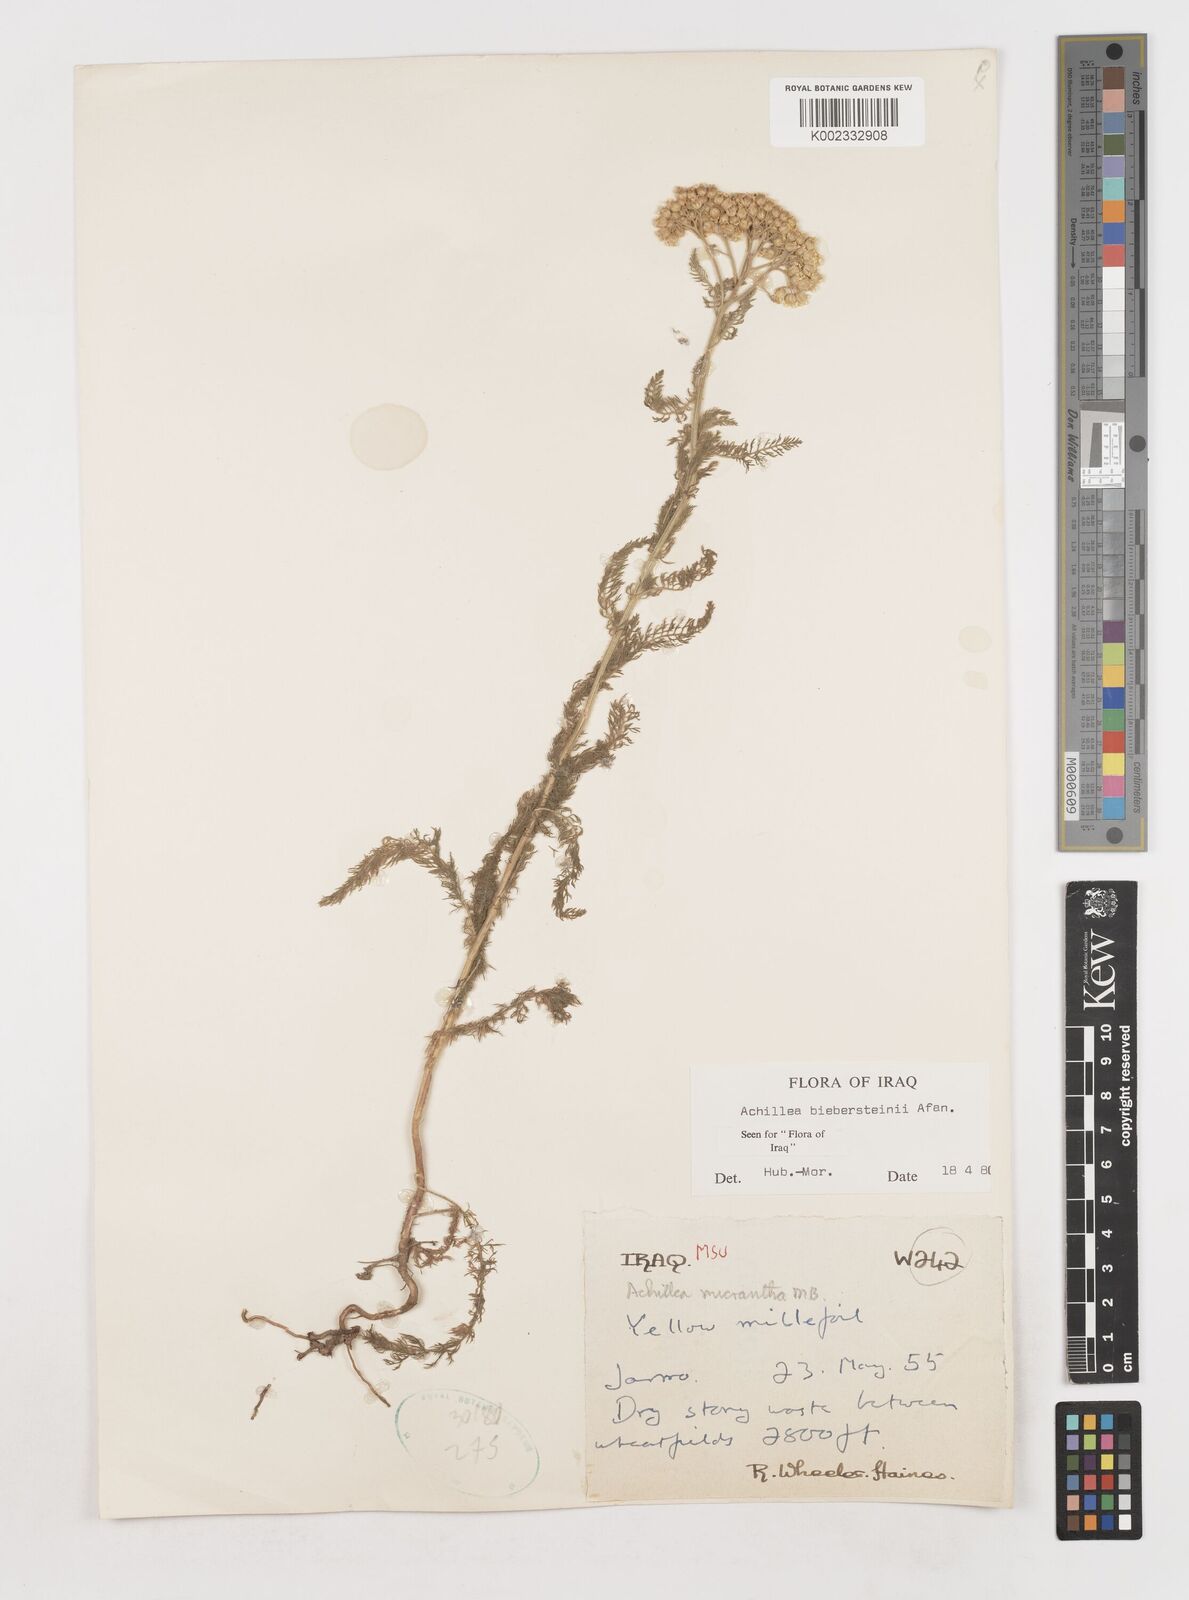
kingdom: Plantae
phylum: Tracheophyta
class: Magnoliopsida
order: Asterales
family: Asteraceae
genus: Achillea
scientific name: Achillea arabica
